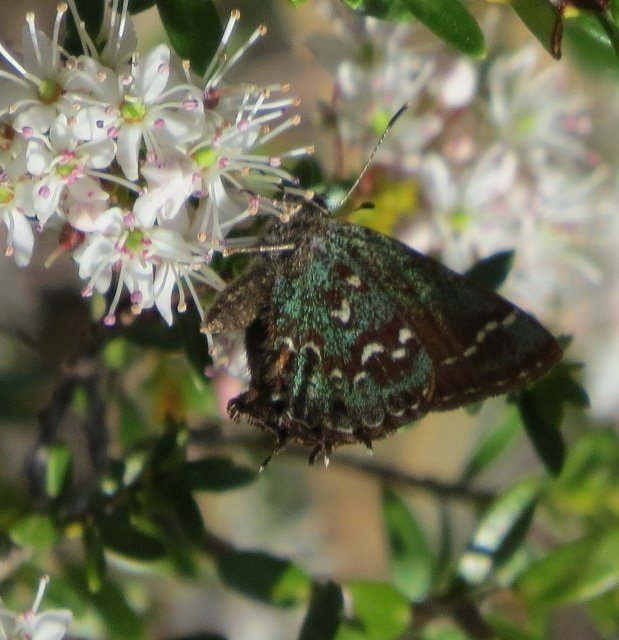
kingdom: Animalia
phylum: Arthropoda
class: Insecta
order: Lepidoptera
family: Lycaenidae
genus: Mitoura
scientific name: Mitoura hesseli
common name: Hessel's Hairstreak
